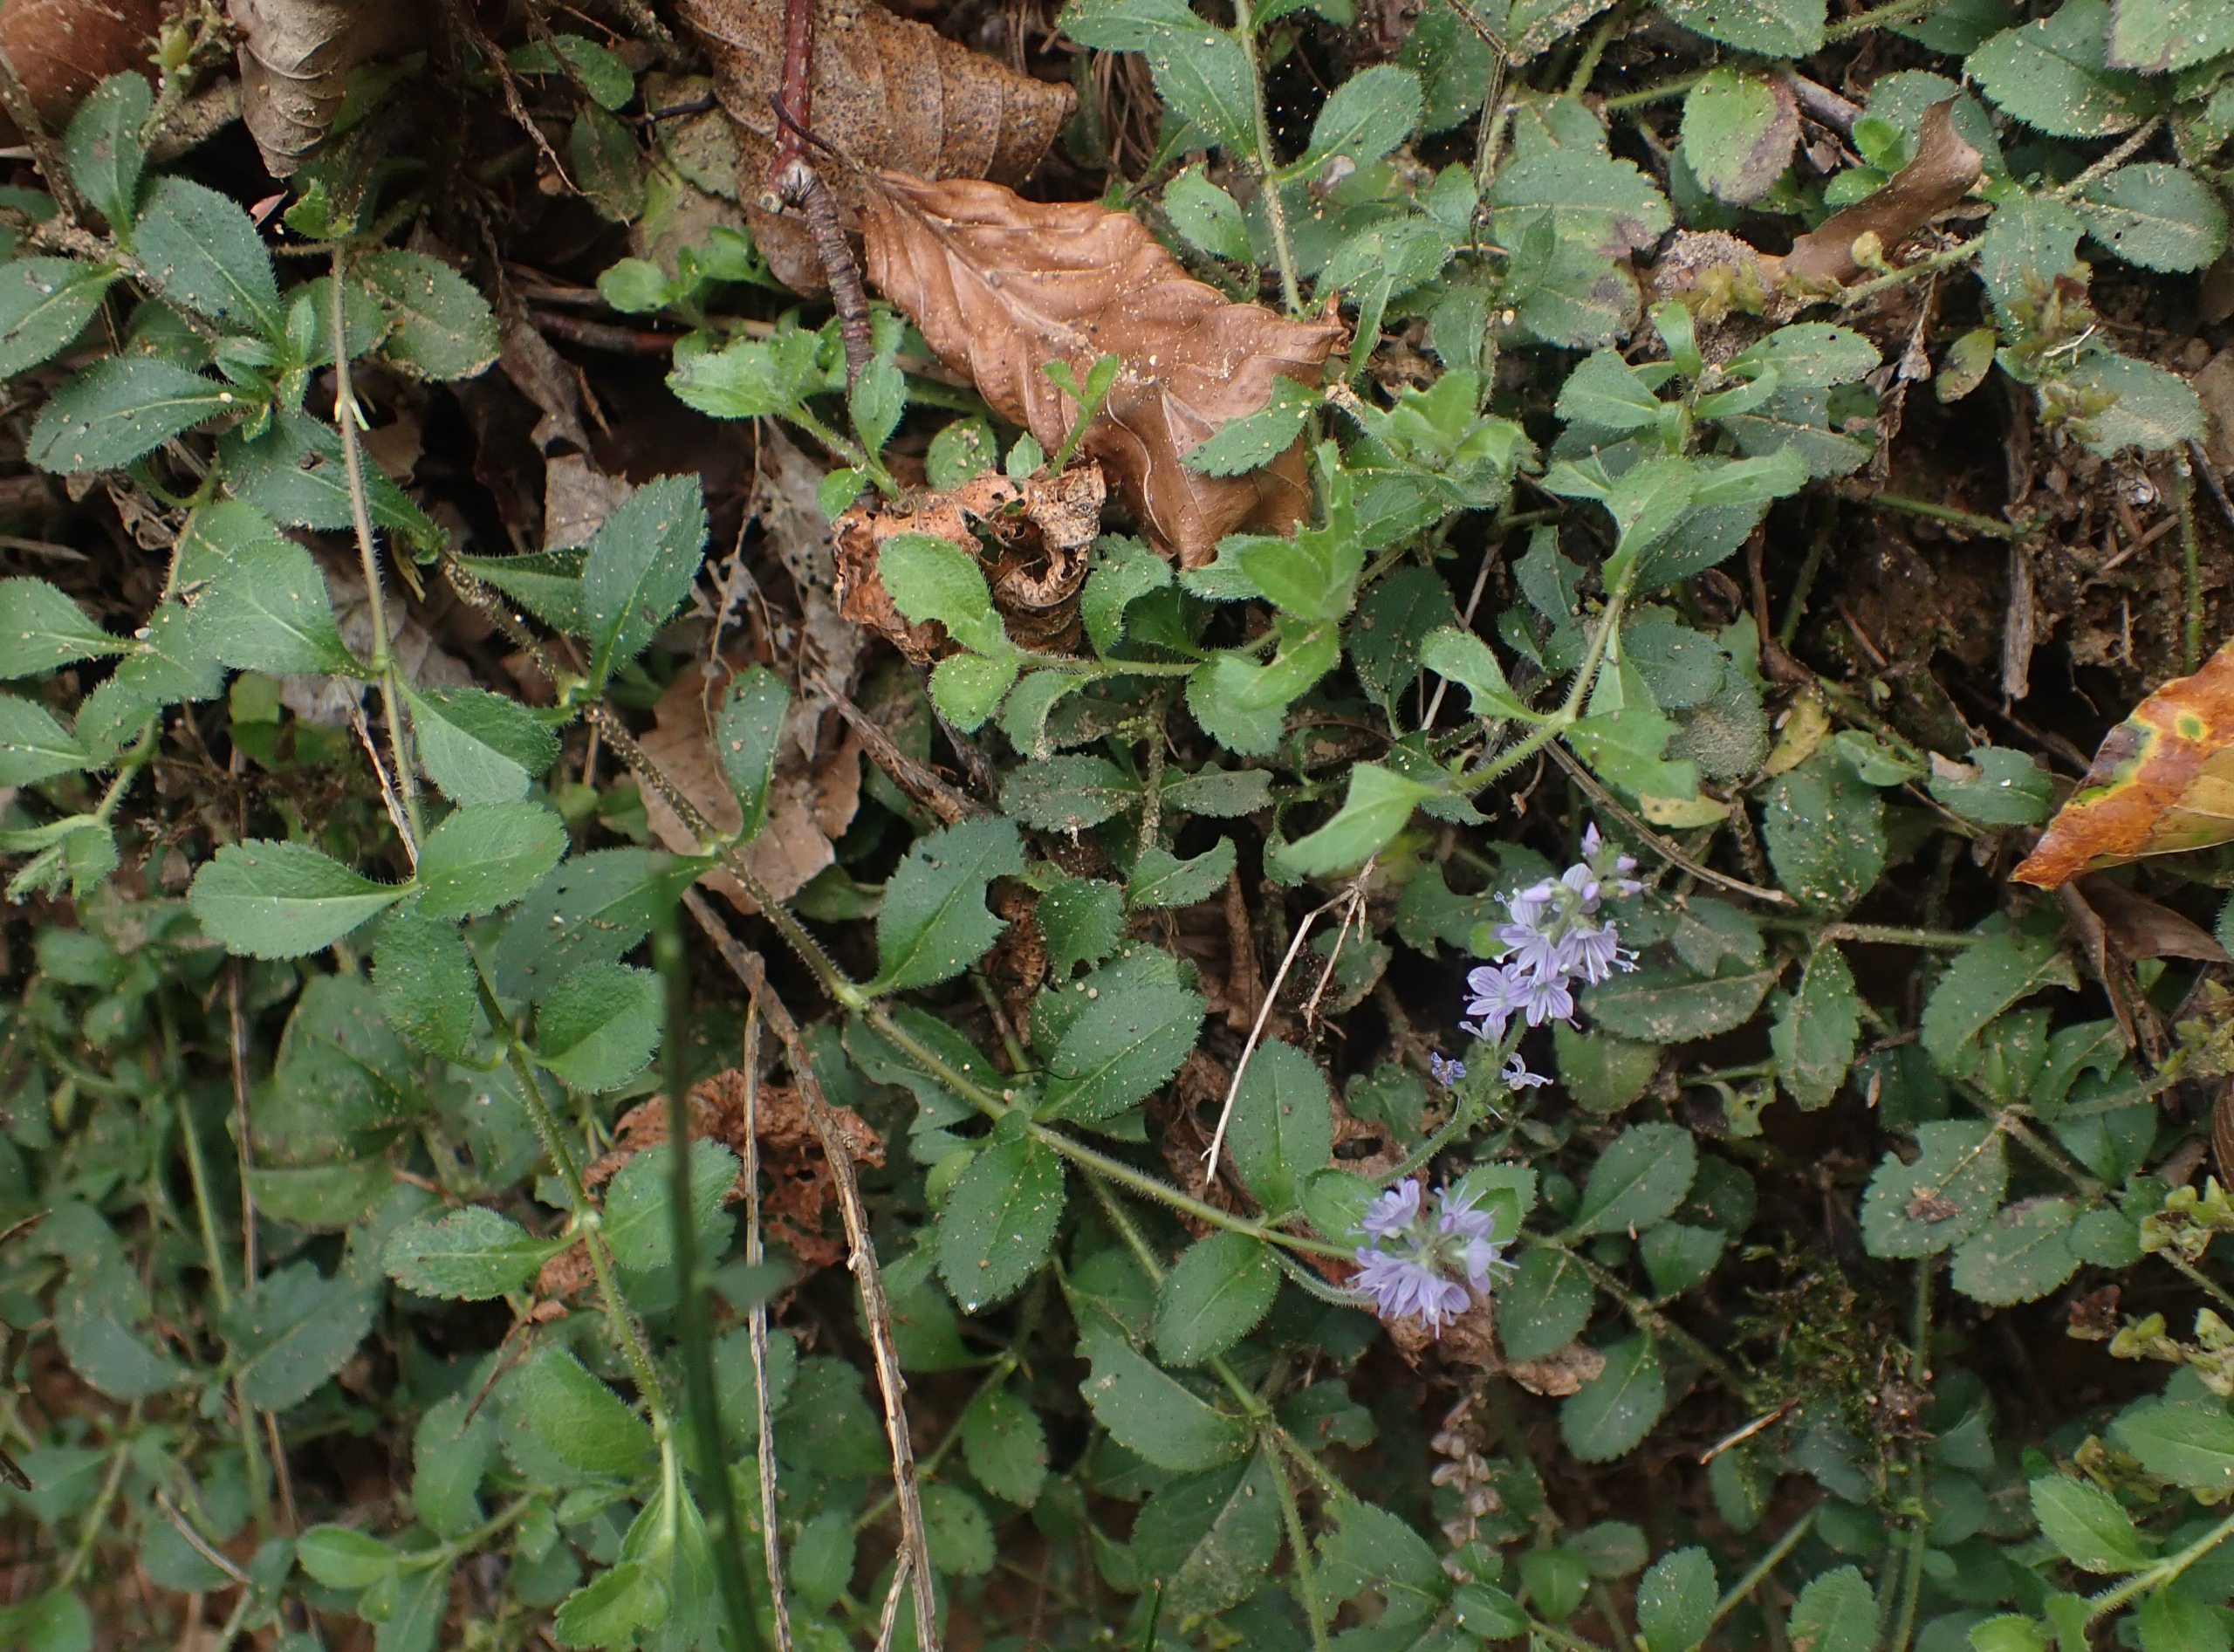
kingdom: Plantae
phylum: Tracheophyta
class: Magnoliopsida
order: Lamiales
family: Plantaginaceae
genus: Veronica
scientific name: Veronica officinalis
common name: Læge-ærenpris
